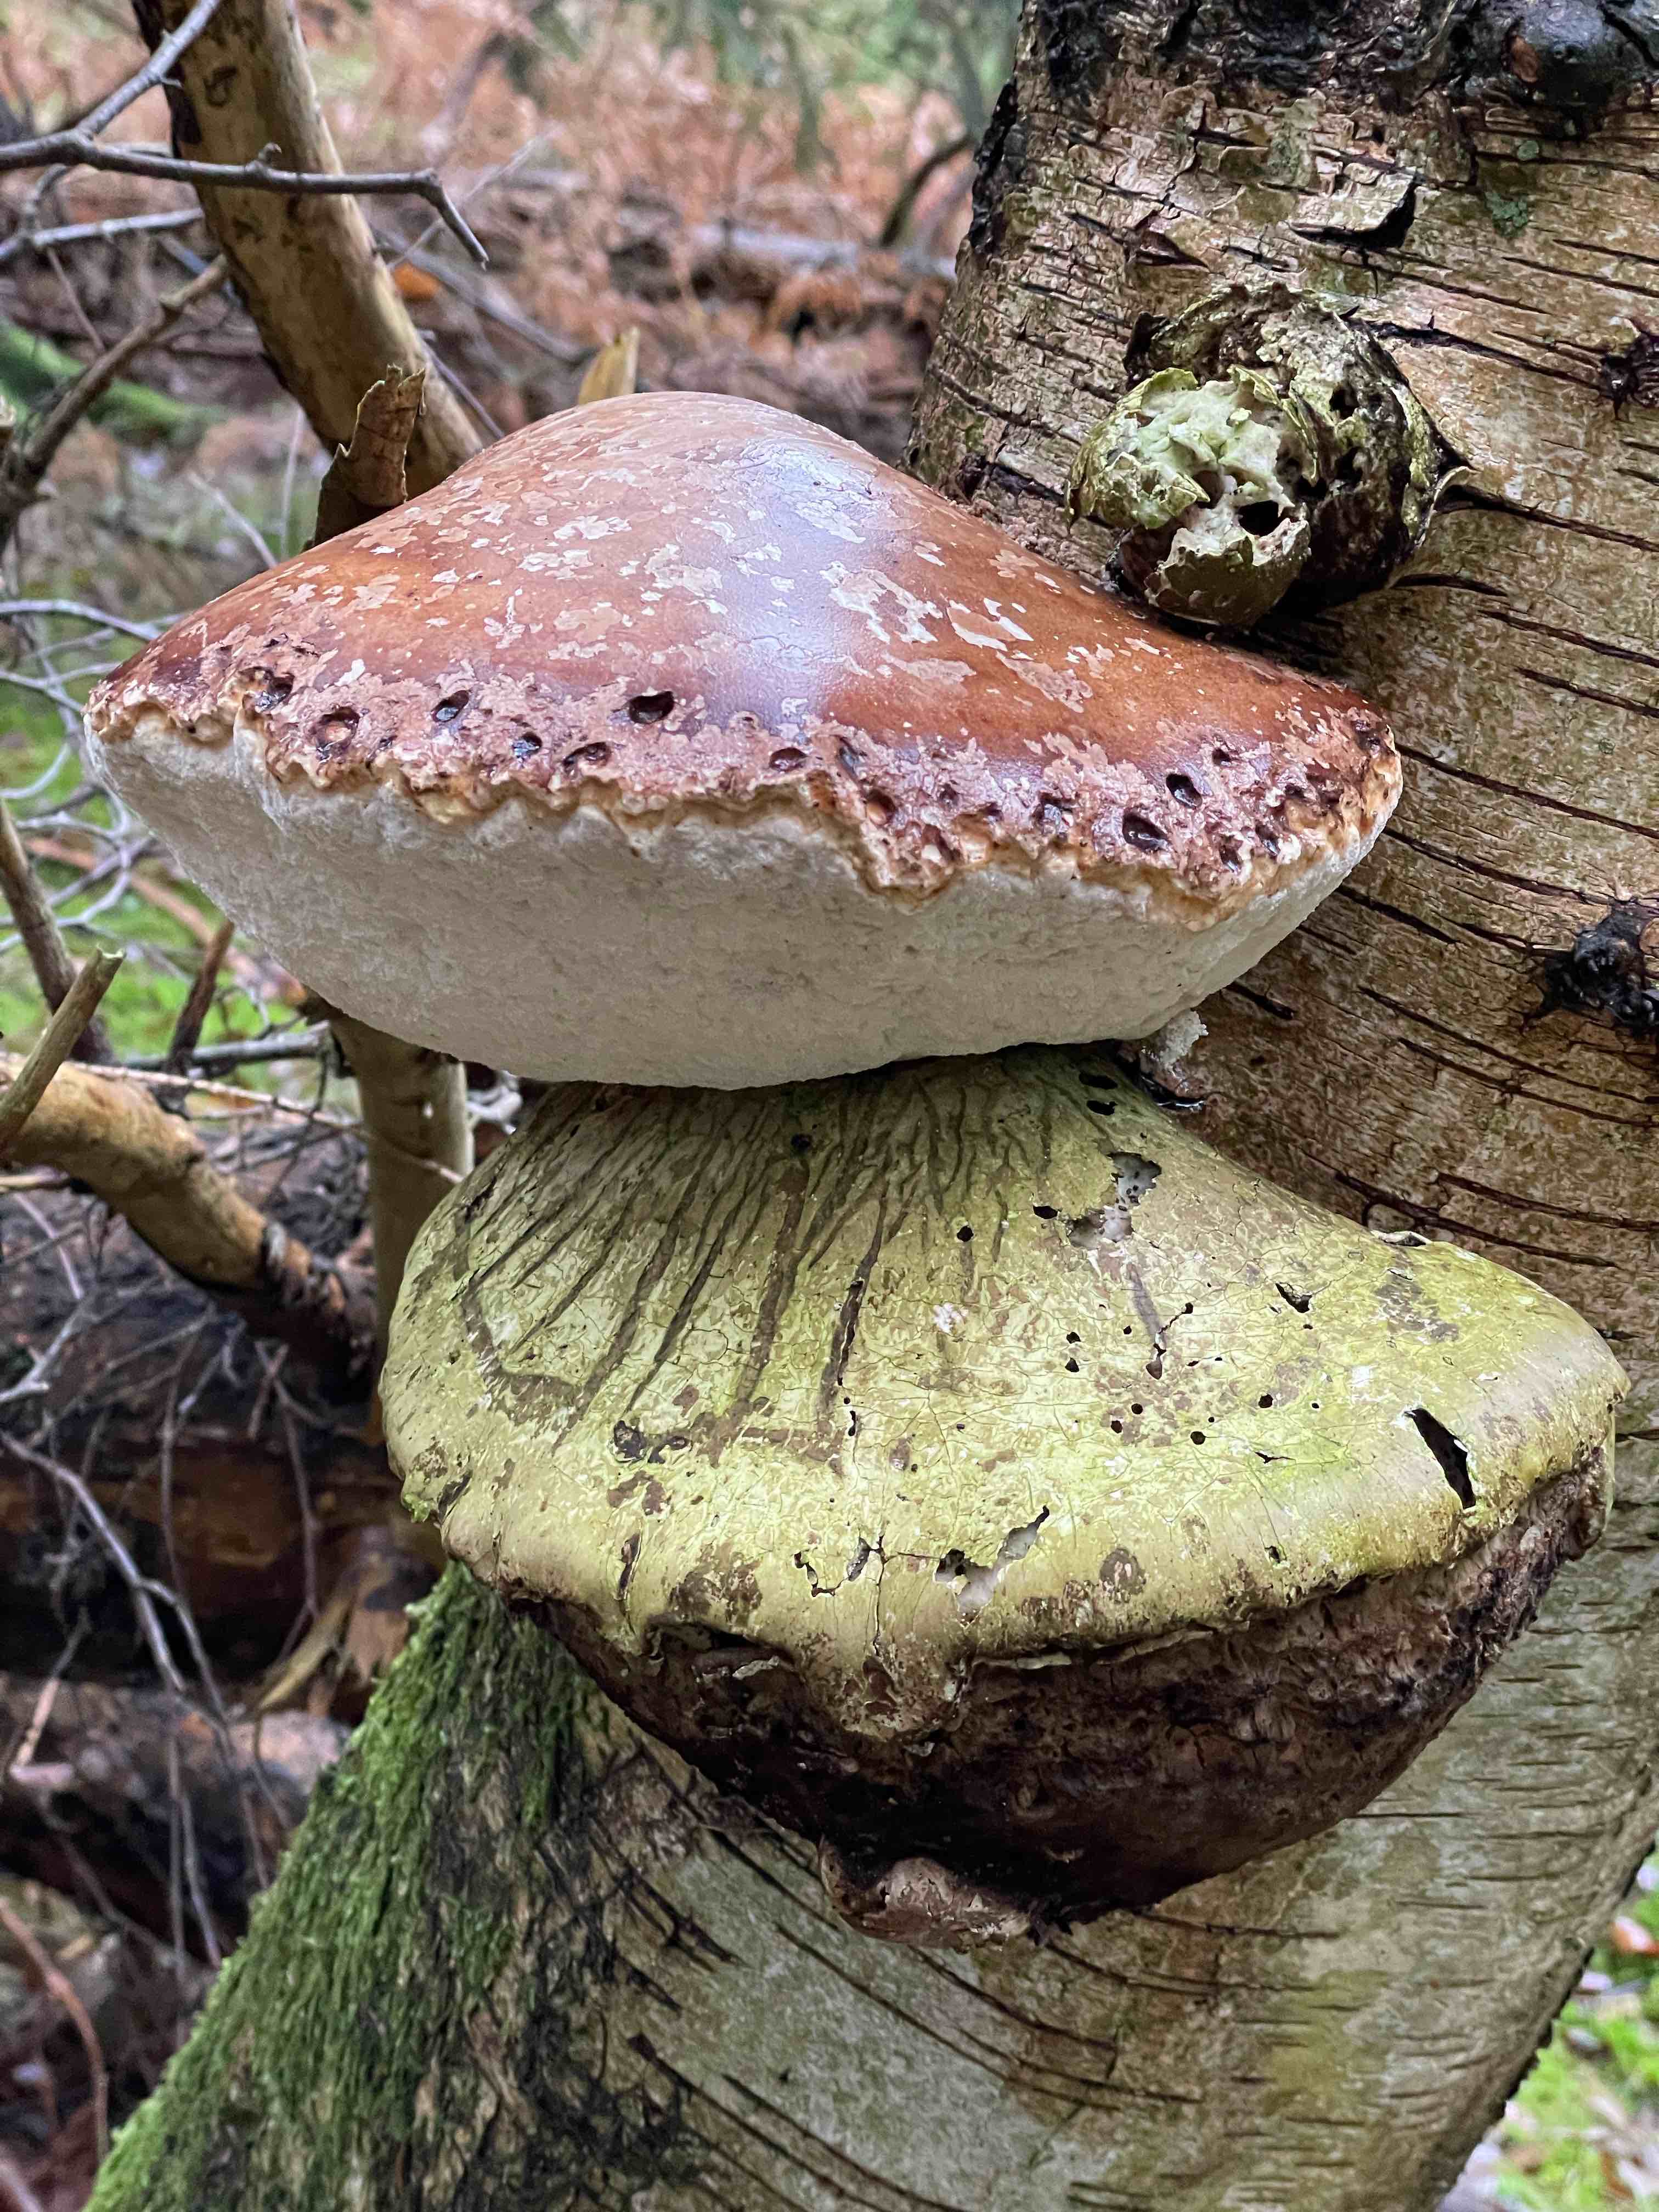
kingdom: Fungi
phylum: Basidiomycota
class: Agaricomycetes
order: Polyporales
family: Fomitopsidaceae
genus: Fomitopsis
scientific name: Fomitopsis betulina
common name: birkeporesvamp
